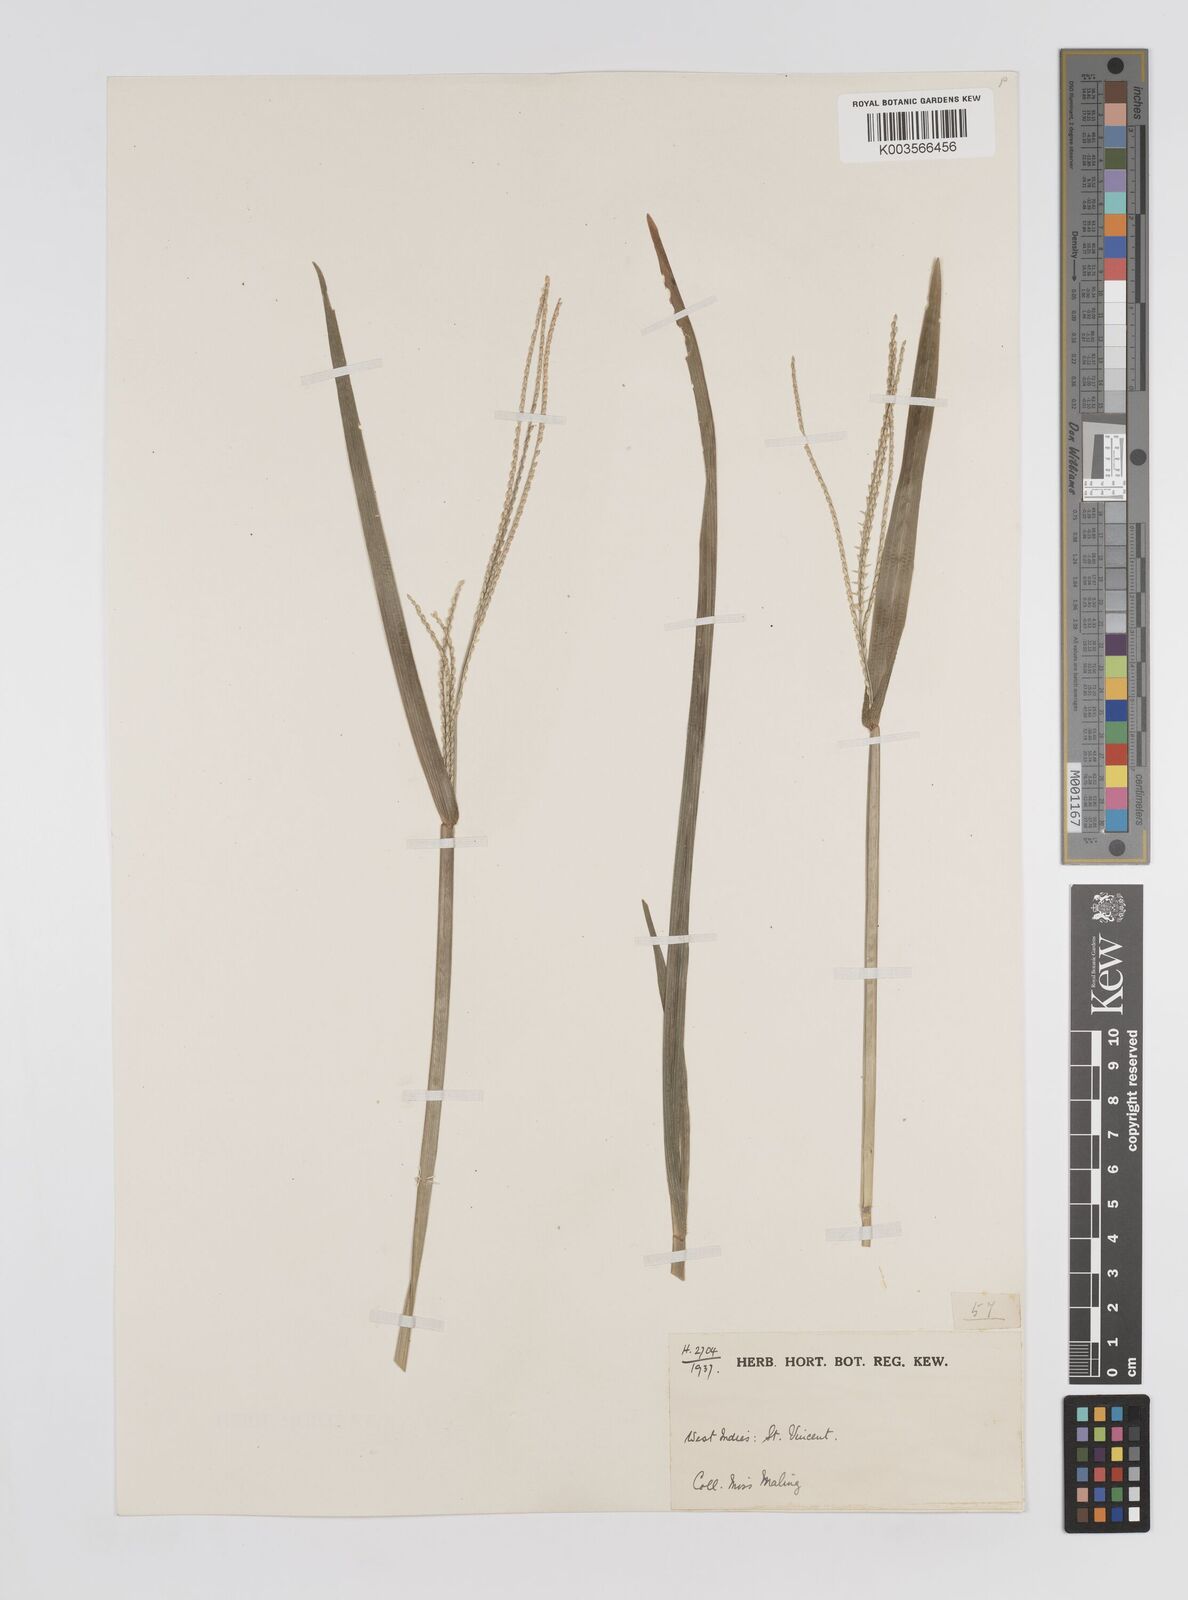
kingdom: Plantae
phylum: Tracheophyta
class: Liliopsida
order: Poales
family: Poaceae
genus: Axonopus
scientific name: Axonopus compressus
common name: American carpet grass
